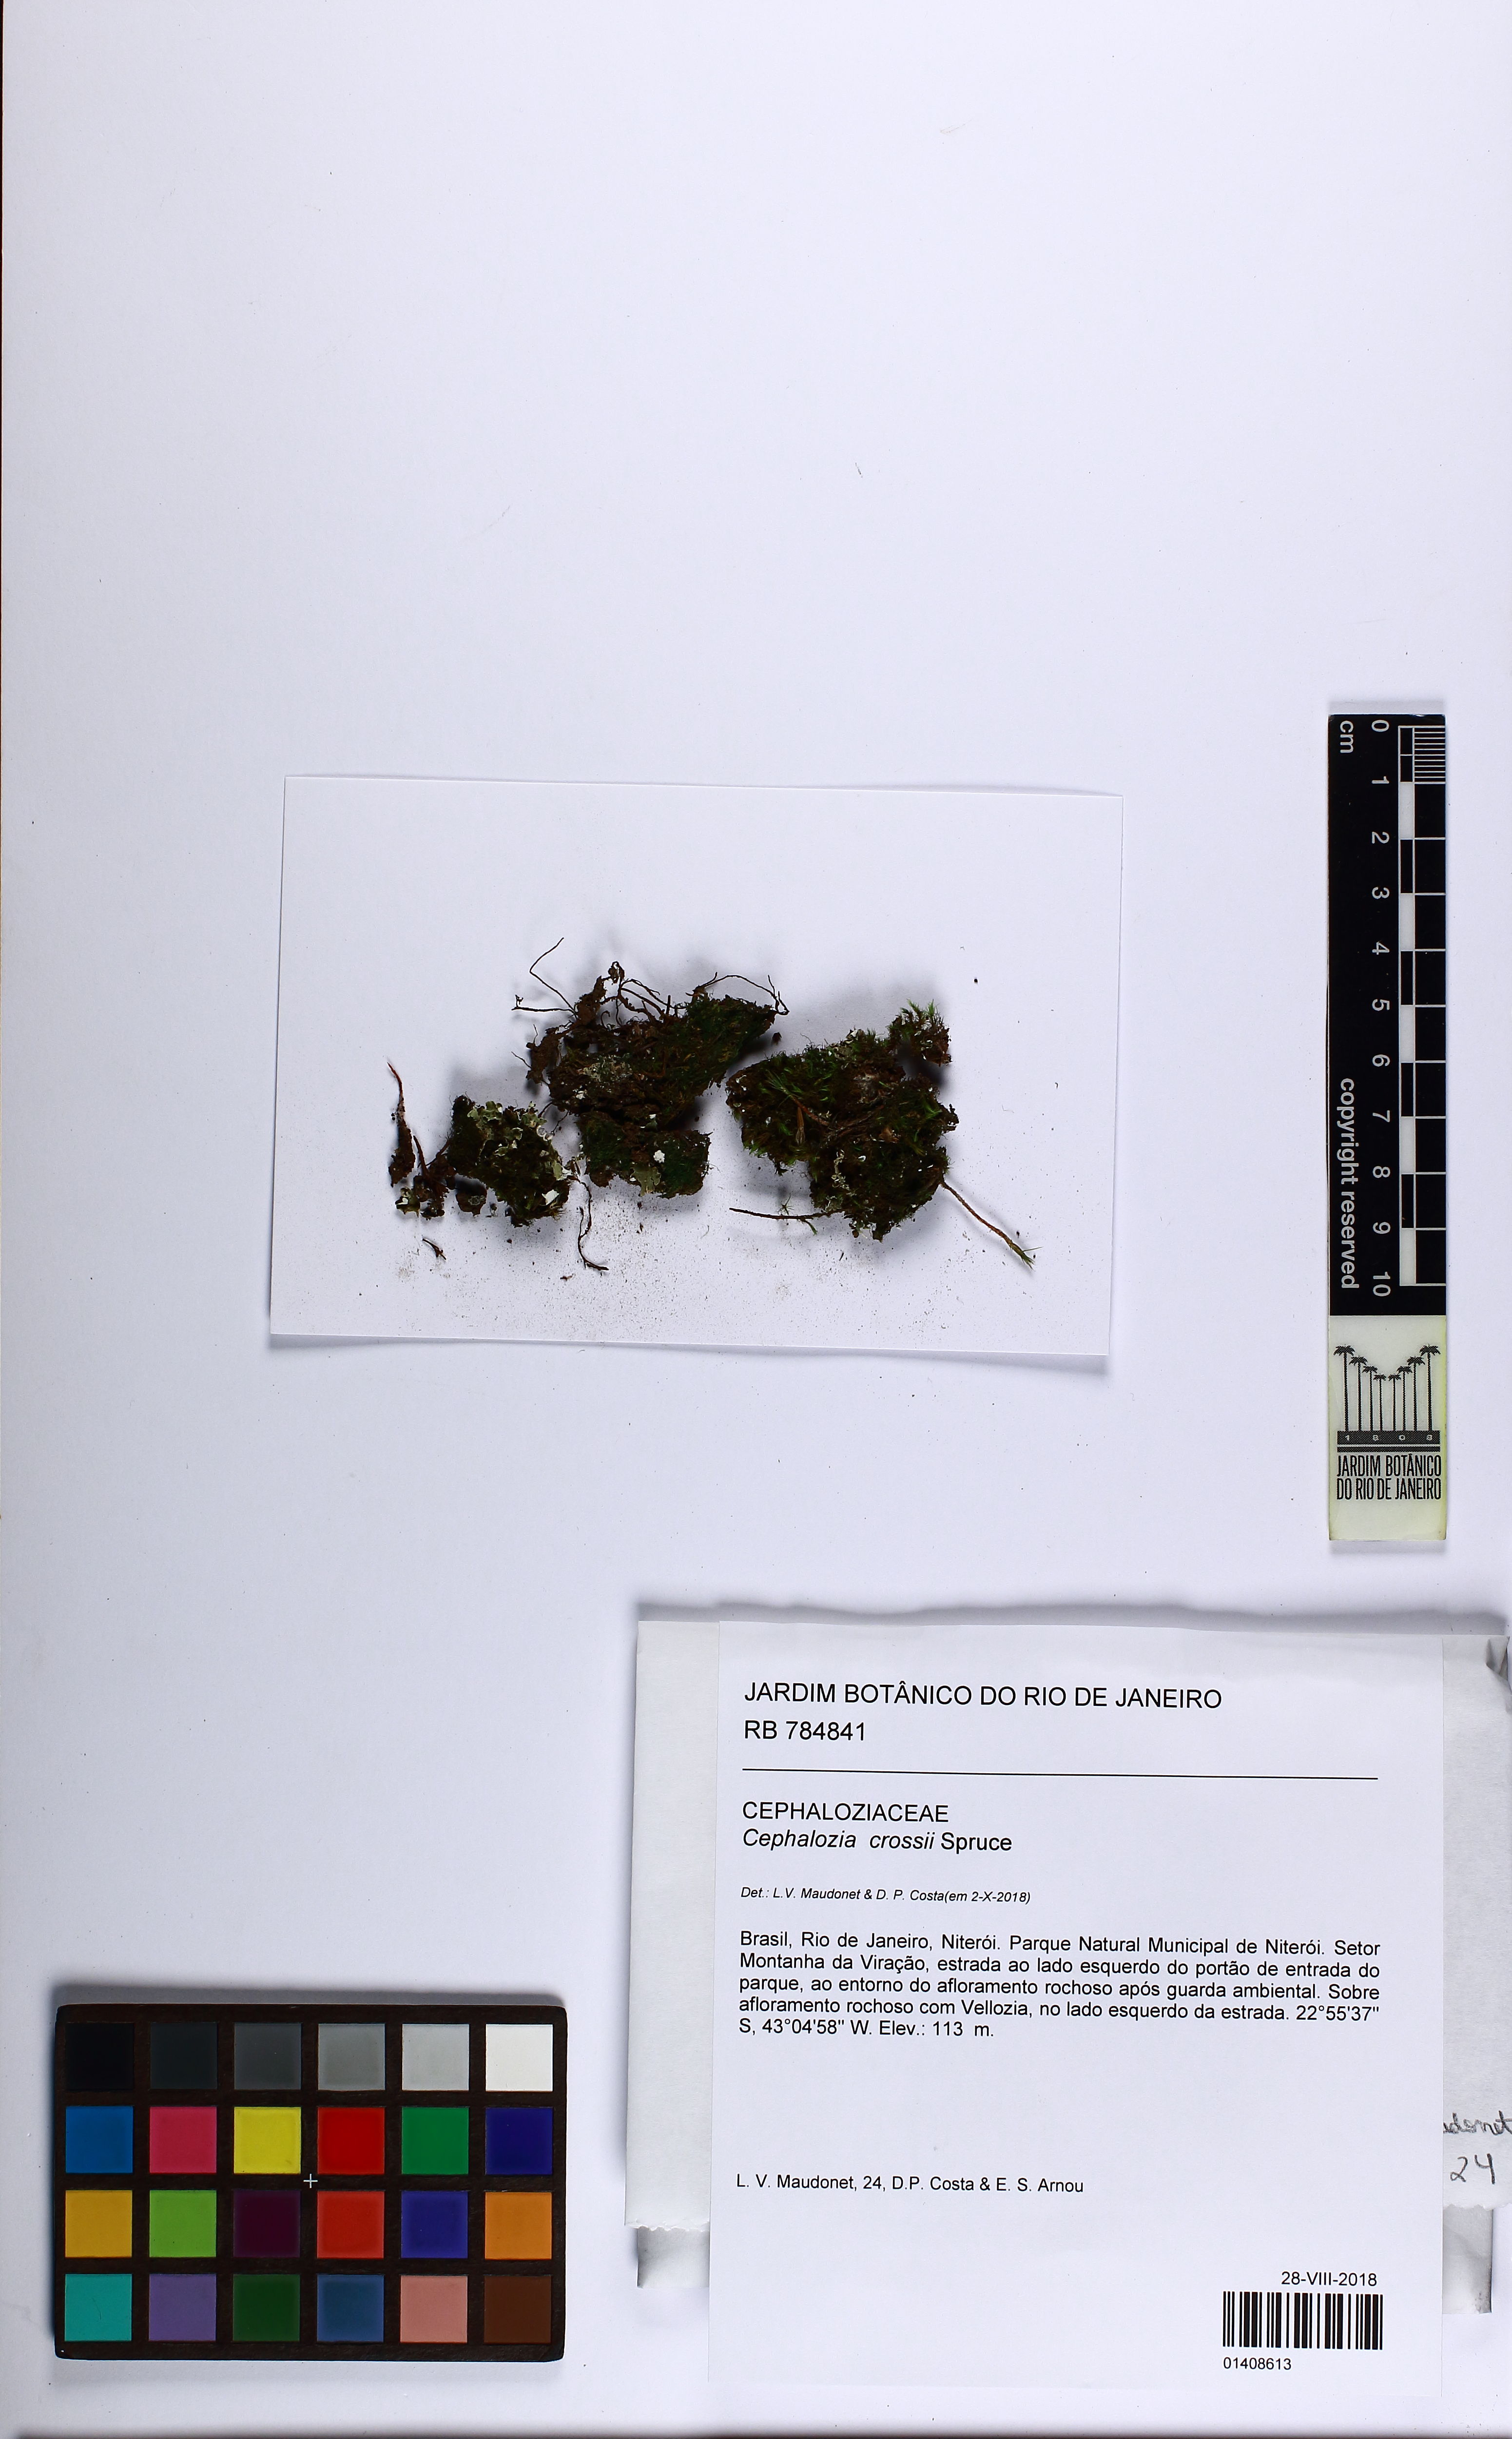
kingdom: Plantae
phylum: Marchantiophyta
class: Jungermanniopsida
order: Jungermanniales
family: Cephaloziaceae
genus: Cephalozia
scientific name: Cephalozia crossii
